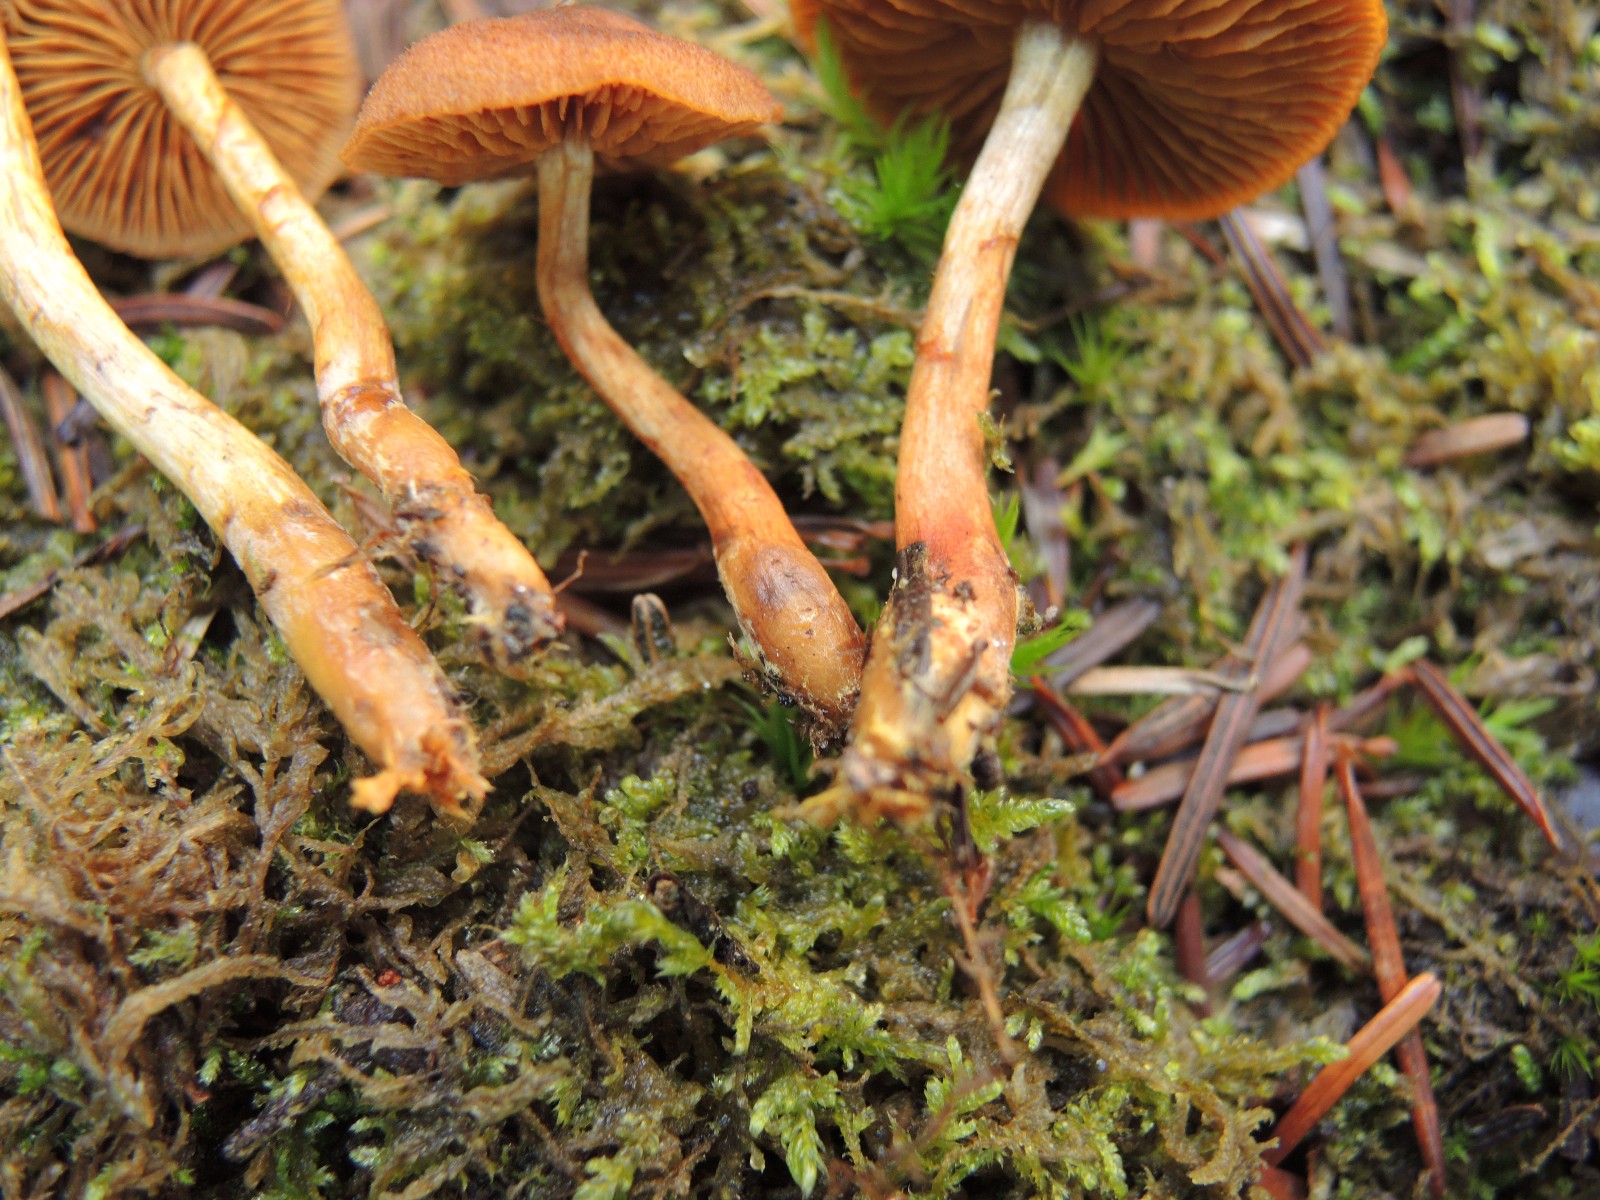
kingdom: Fungi
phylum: Basidiomycota
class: Agaricomycetes
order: Agaricales
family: Cortinariaceae
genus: Cortinarius
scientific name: Cortinarius chrysolitus
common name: safranfodet slørhat
